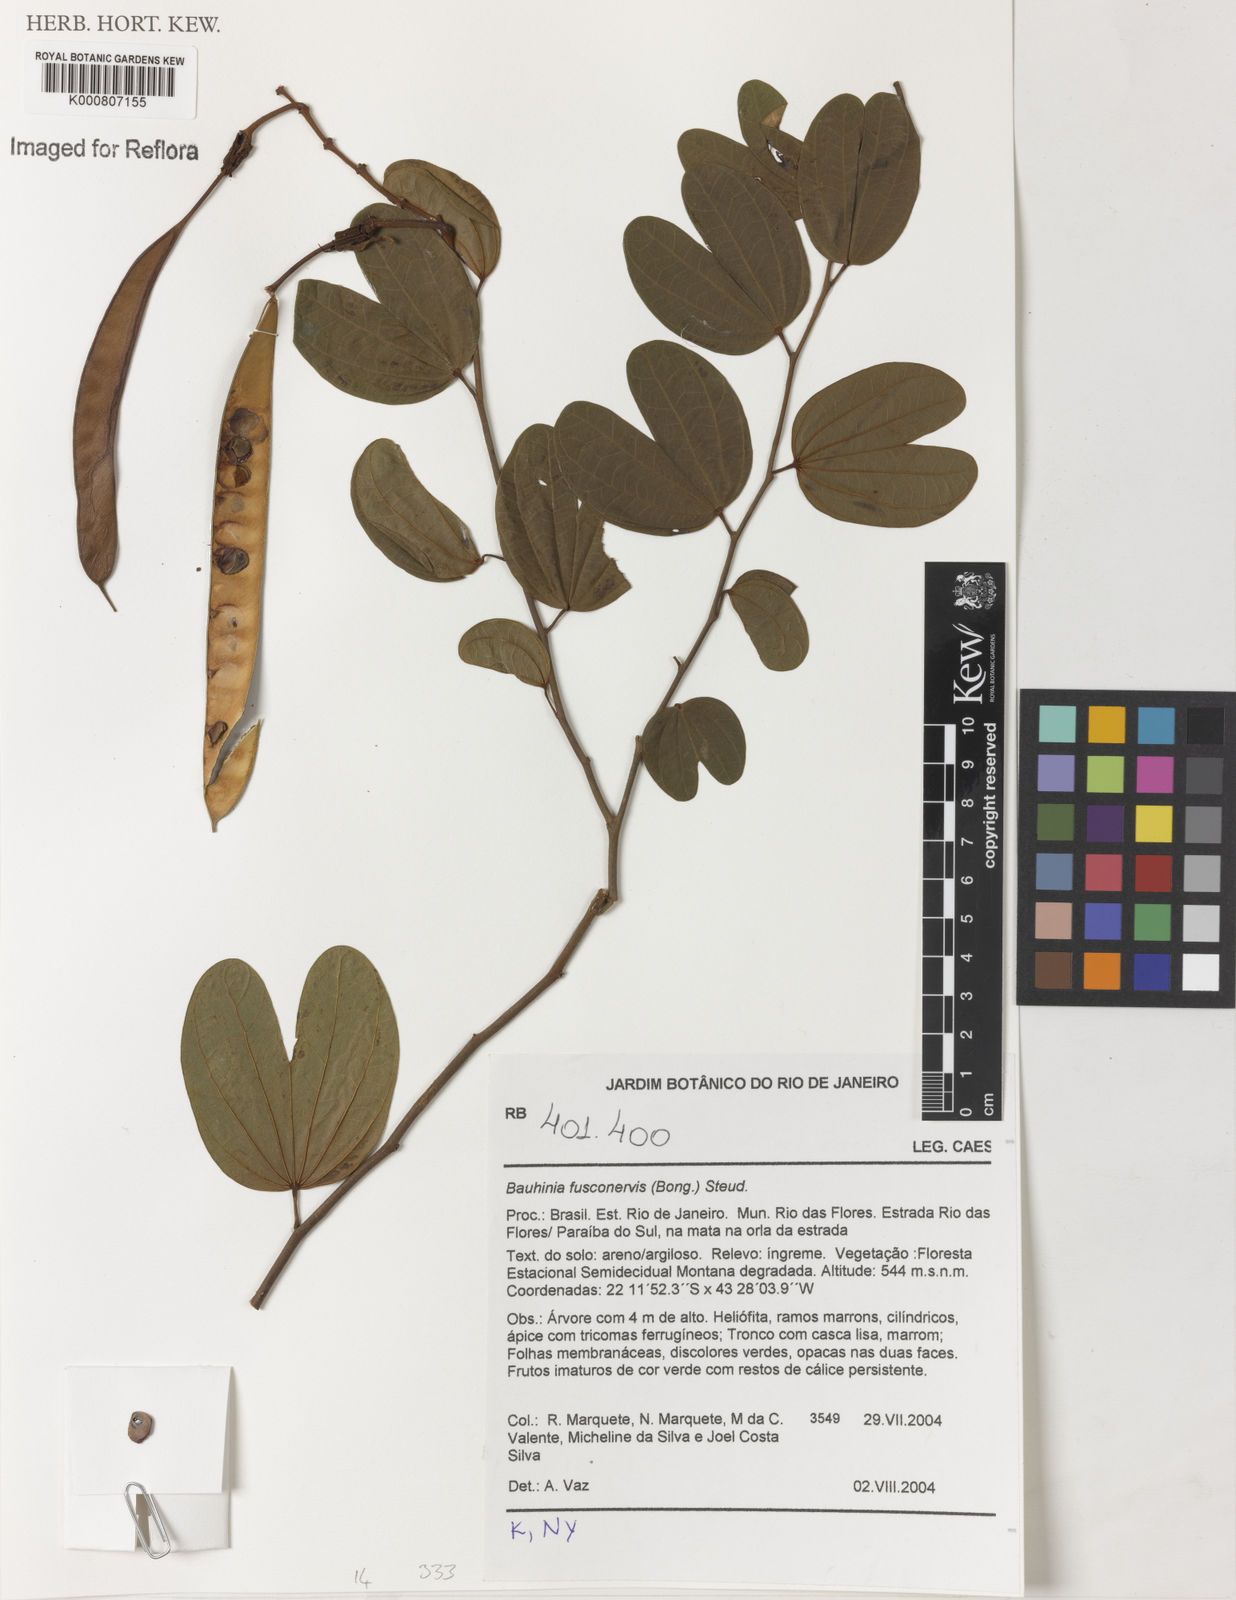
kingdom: Plantae
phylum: Tracheophyta
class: Magnoliopsida
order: Fabales
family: Fabaceae
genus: Bauhinia
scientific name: Bauhinia
